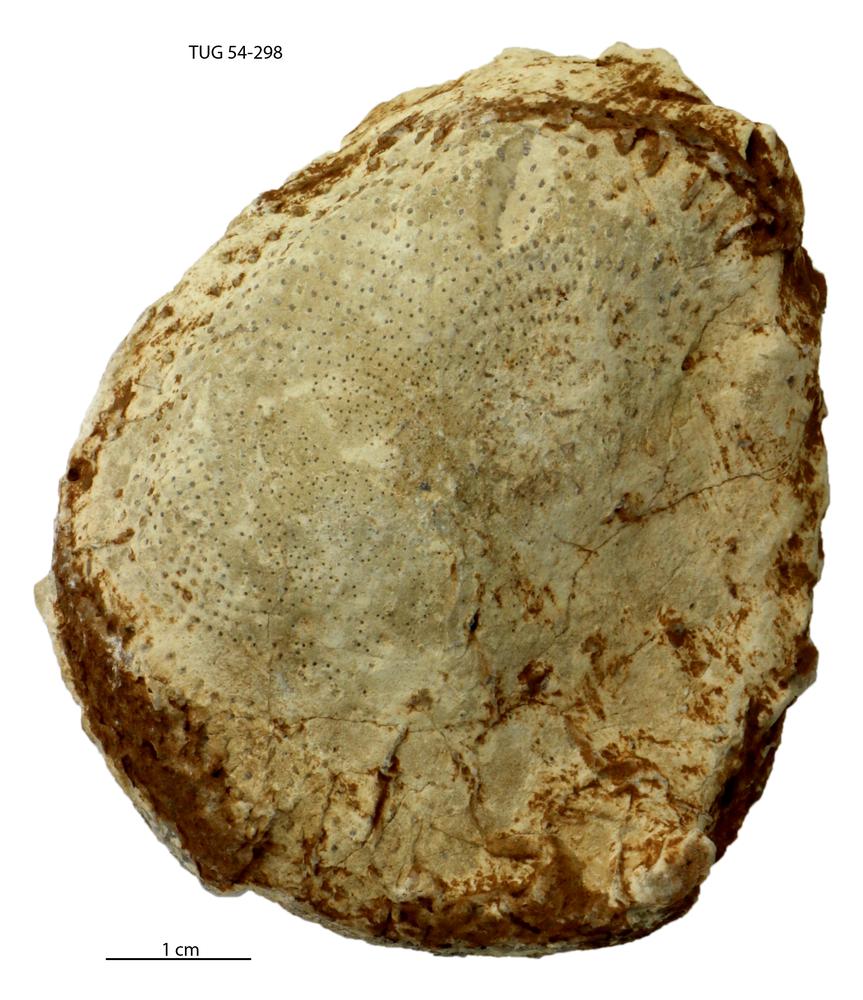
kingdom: Plantae
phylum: Chlorophyta
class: Chlorophyceae
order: Receptaculitales
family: Receptaculitaceae
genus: Receptaculites
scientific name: Receptaculites
